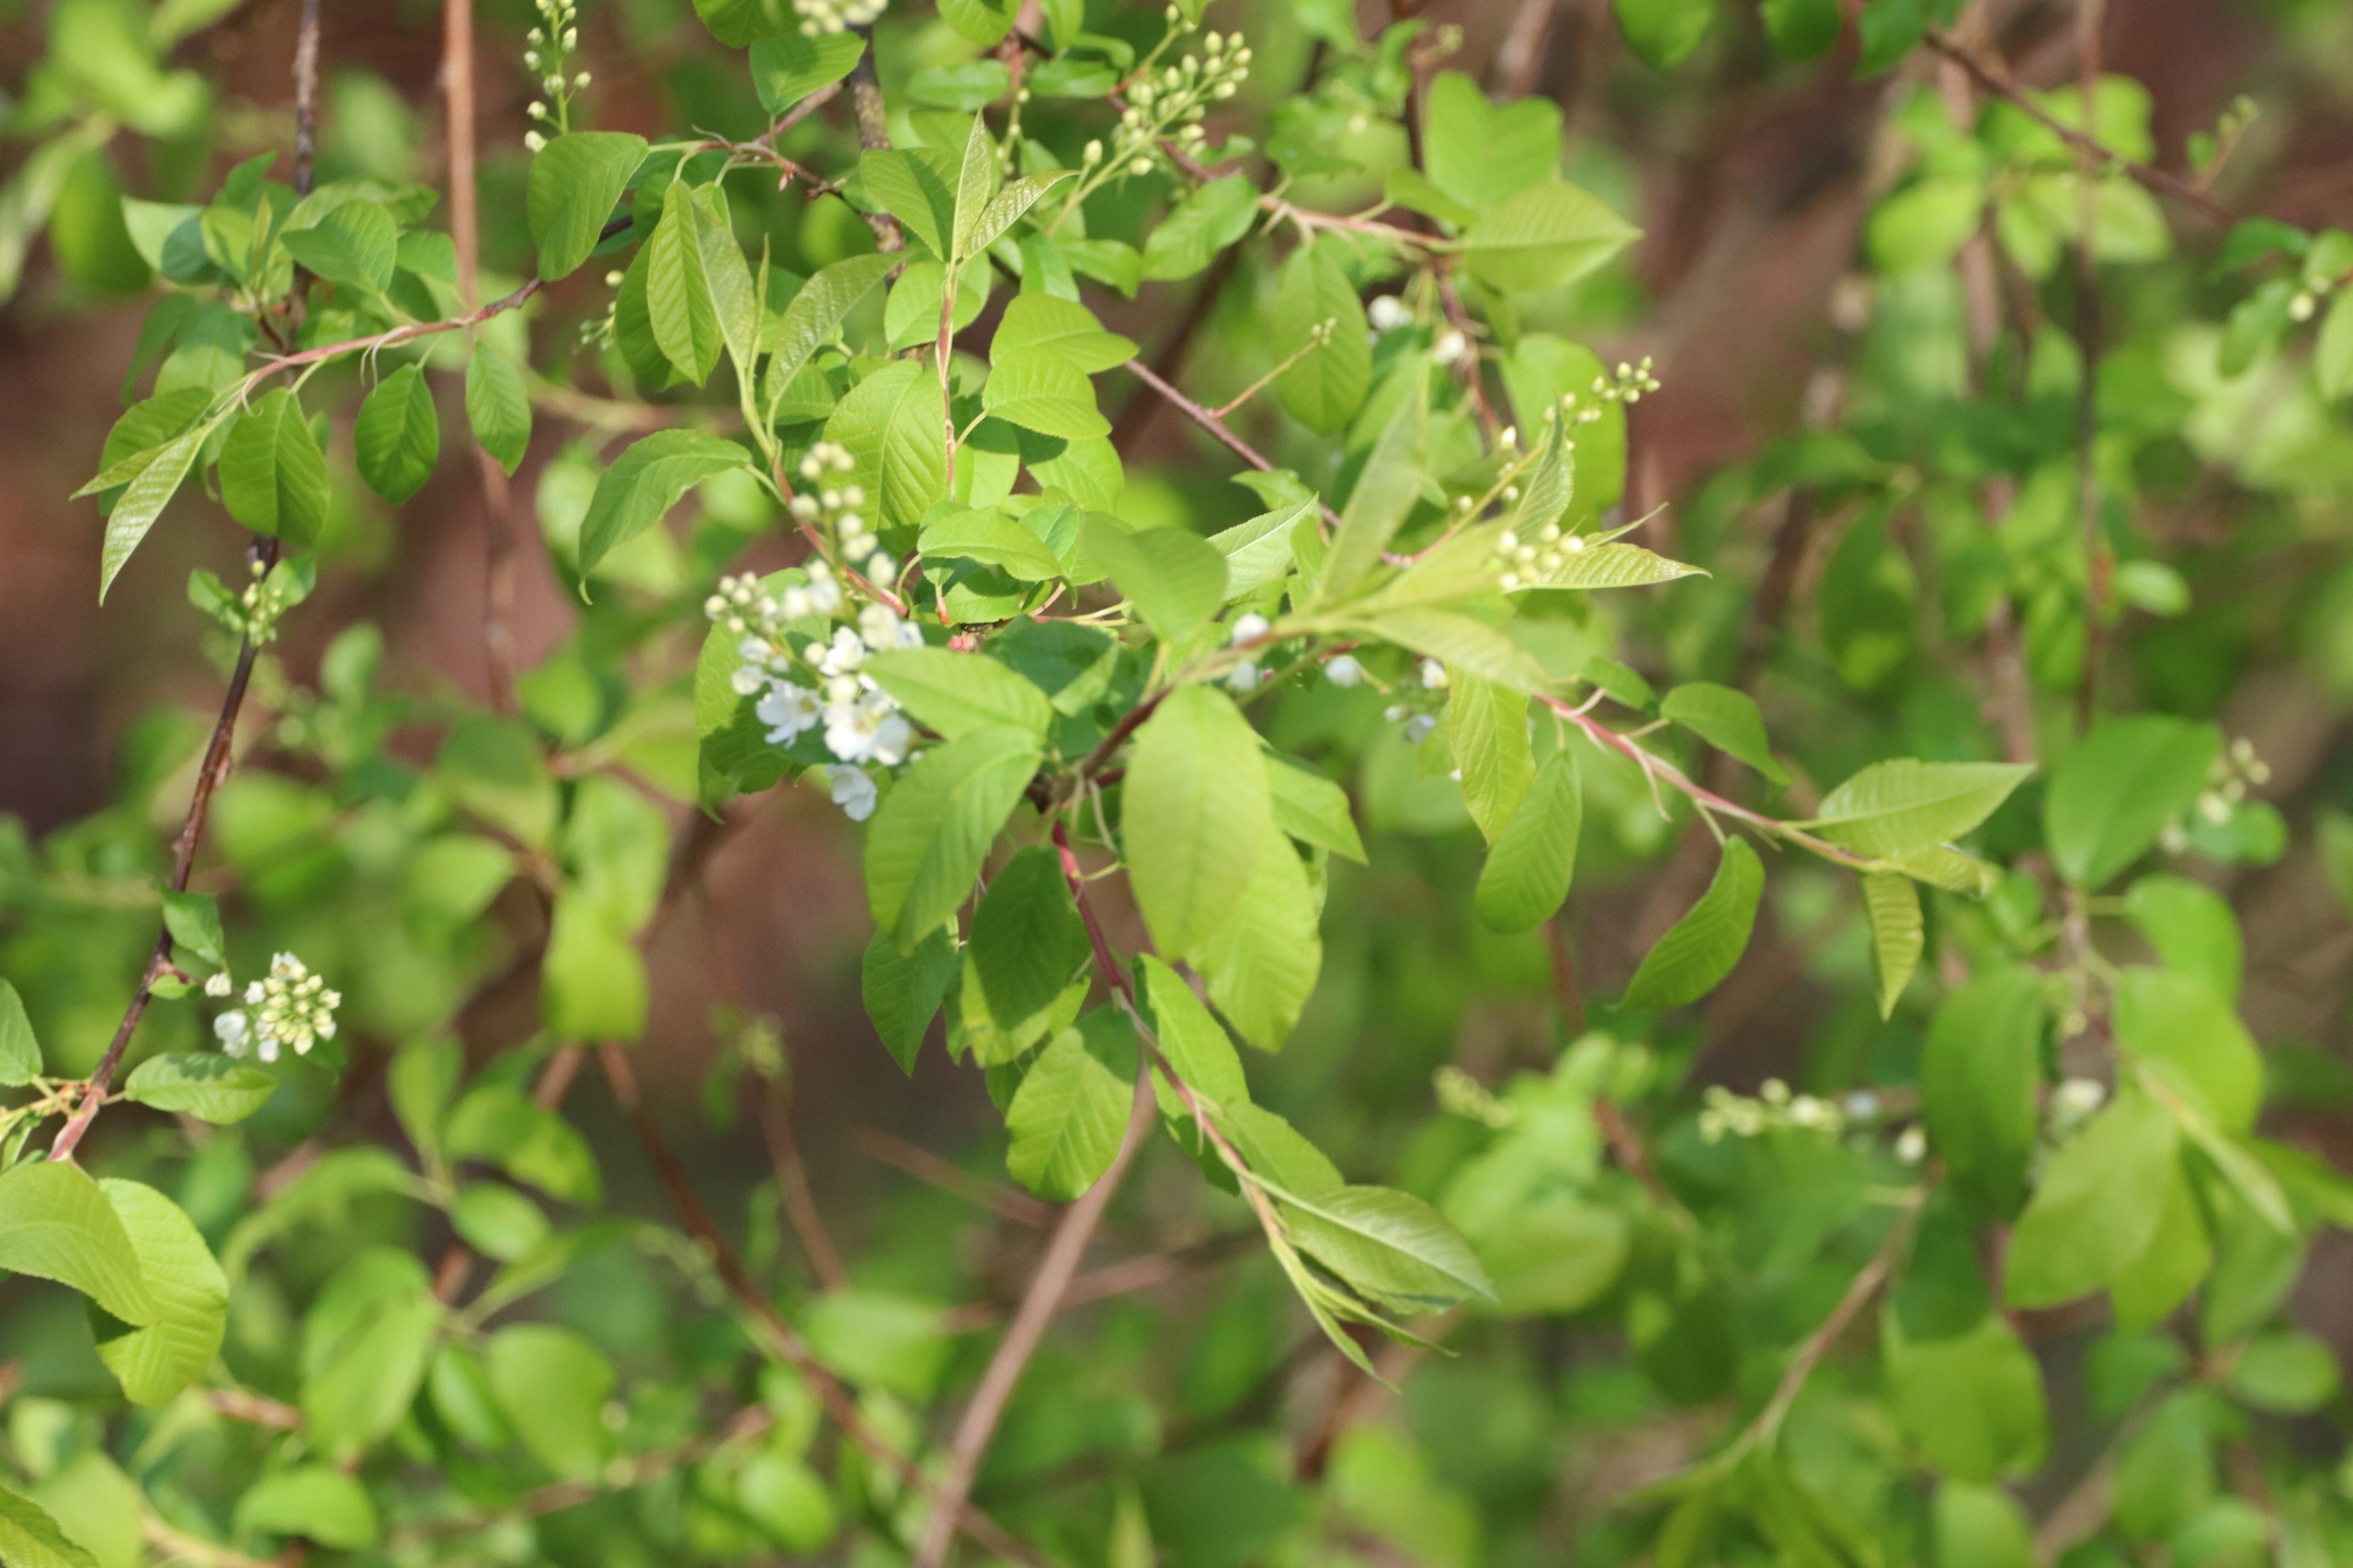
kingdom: Plantae
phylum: Tracheophyta
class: Magnoliopsida
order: Rosales
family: Rosaceae
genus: Prunus
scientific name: Prunus padus
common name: Almindelig hæg
